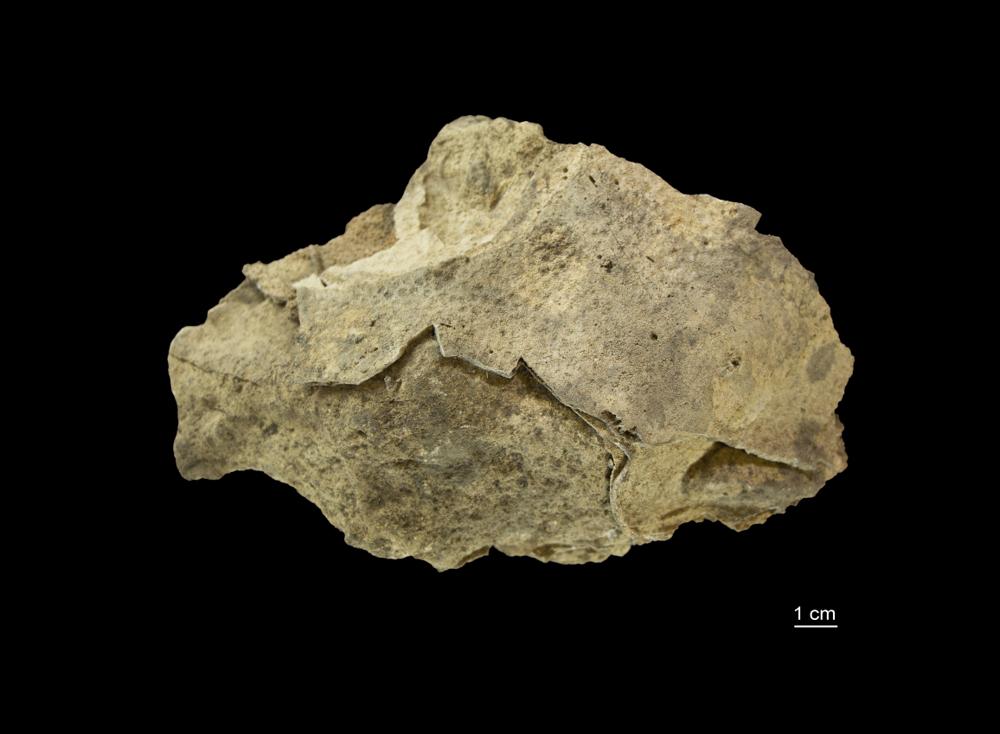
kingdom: Animalia
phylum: Porifera
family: Stromatoporidae
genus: Stromatopora
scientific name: Stromatopora
